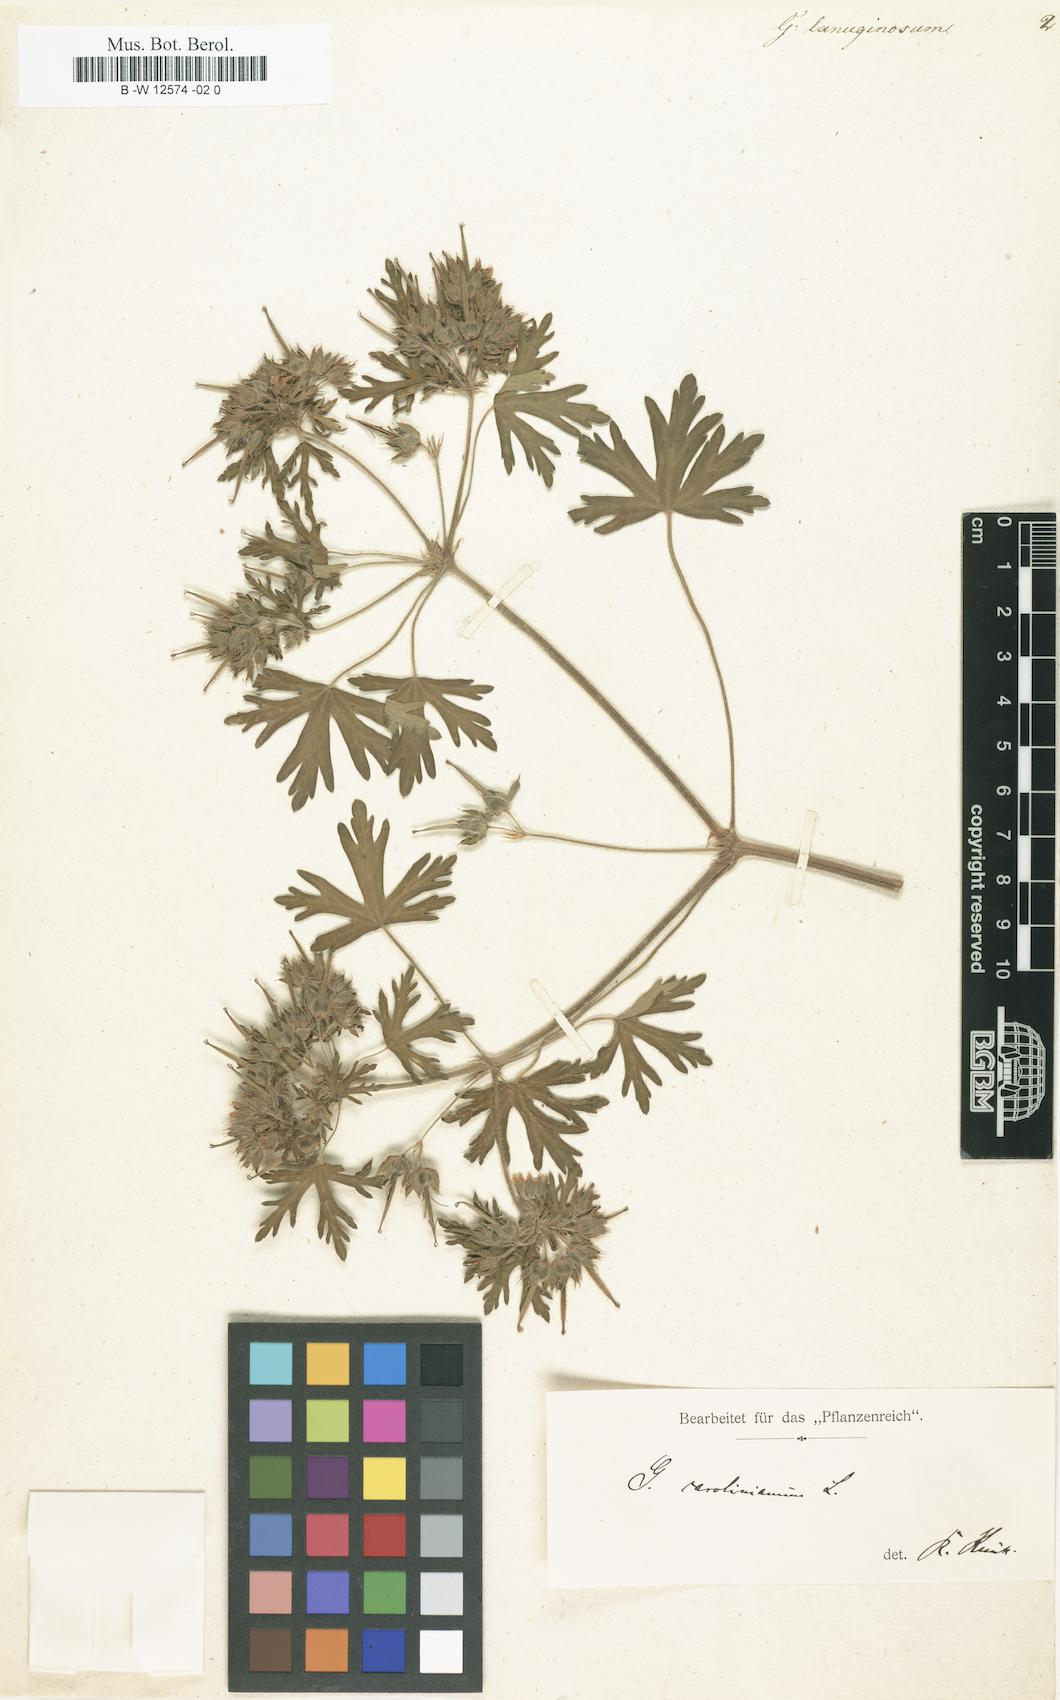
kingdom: Plantae
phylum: Tracheophyta
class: Magnoliopsida
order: Geraniales
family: Geraniaceae
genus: Geranium
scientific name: Geranium
